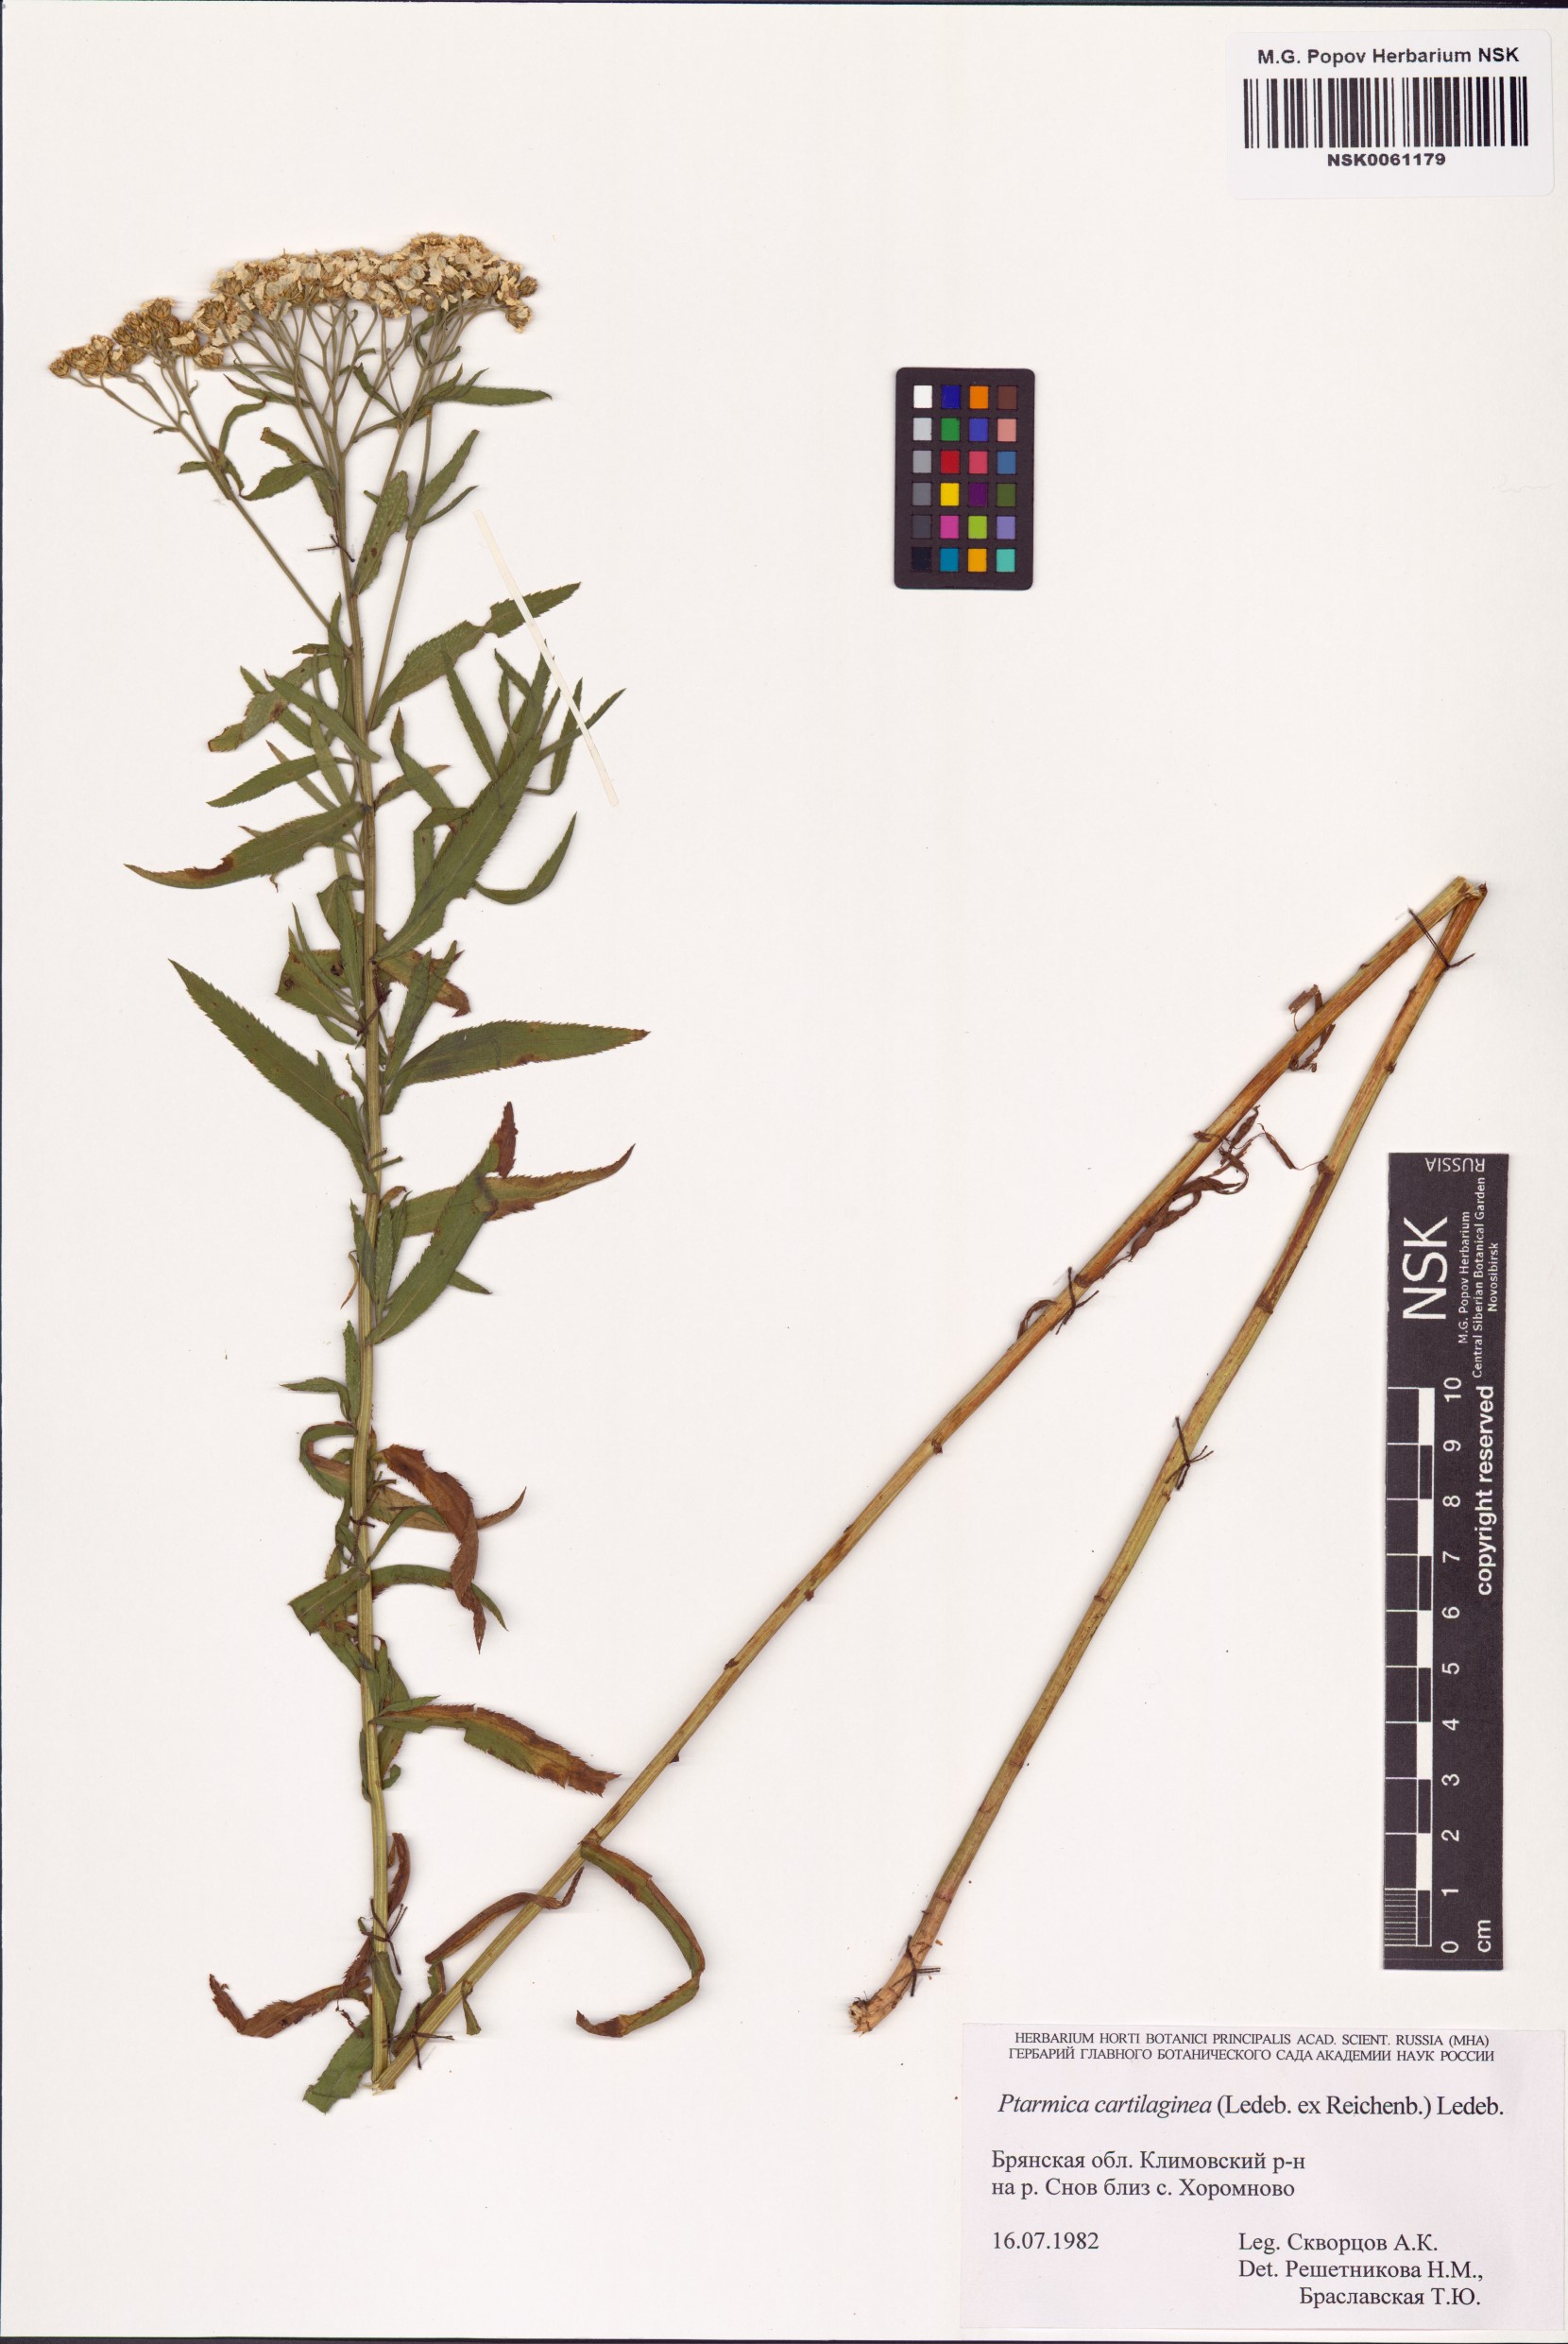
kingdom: Plantae
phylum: Tracheophyta
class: Magnoliopsida
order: Asterales
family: Asteraceae
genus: Achillea
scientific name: Achillea salicifolia
